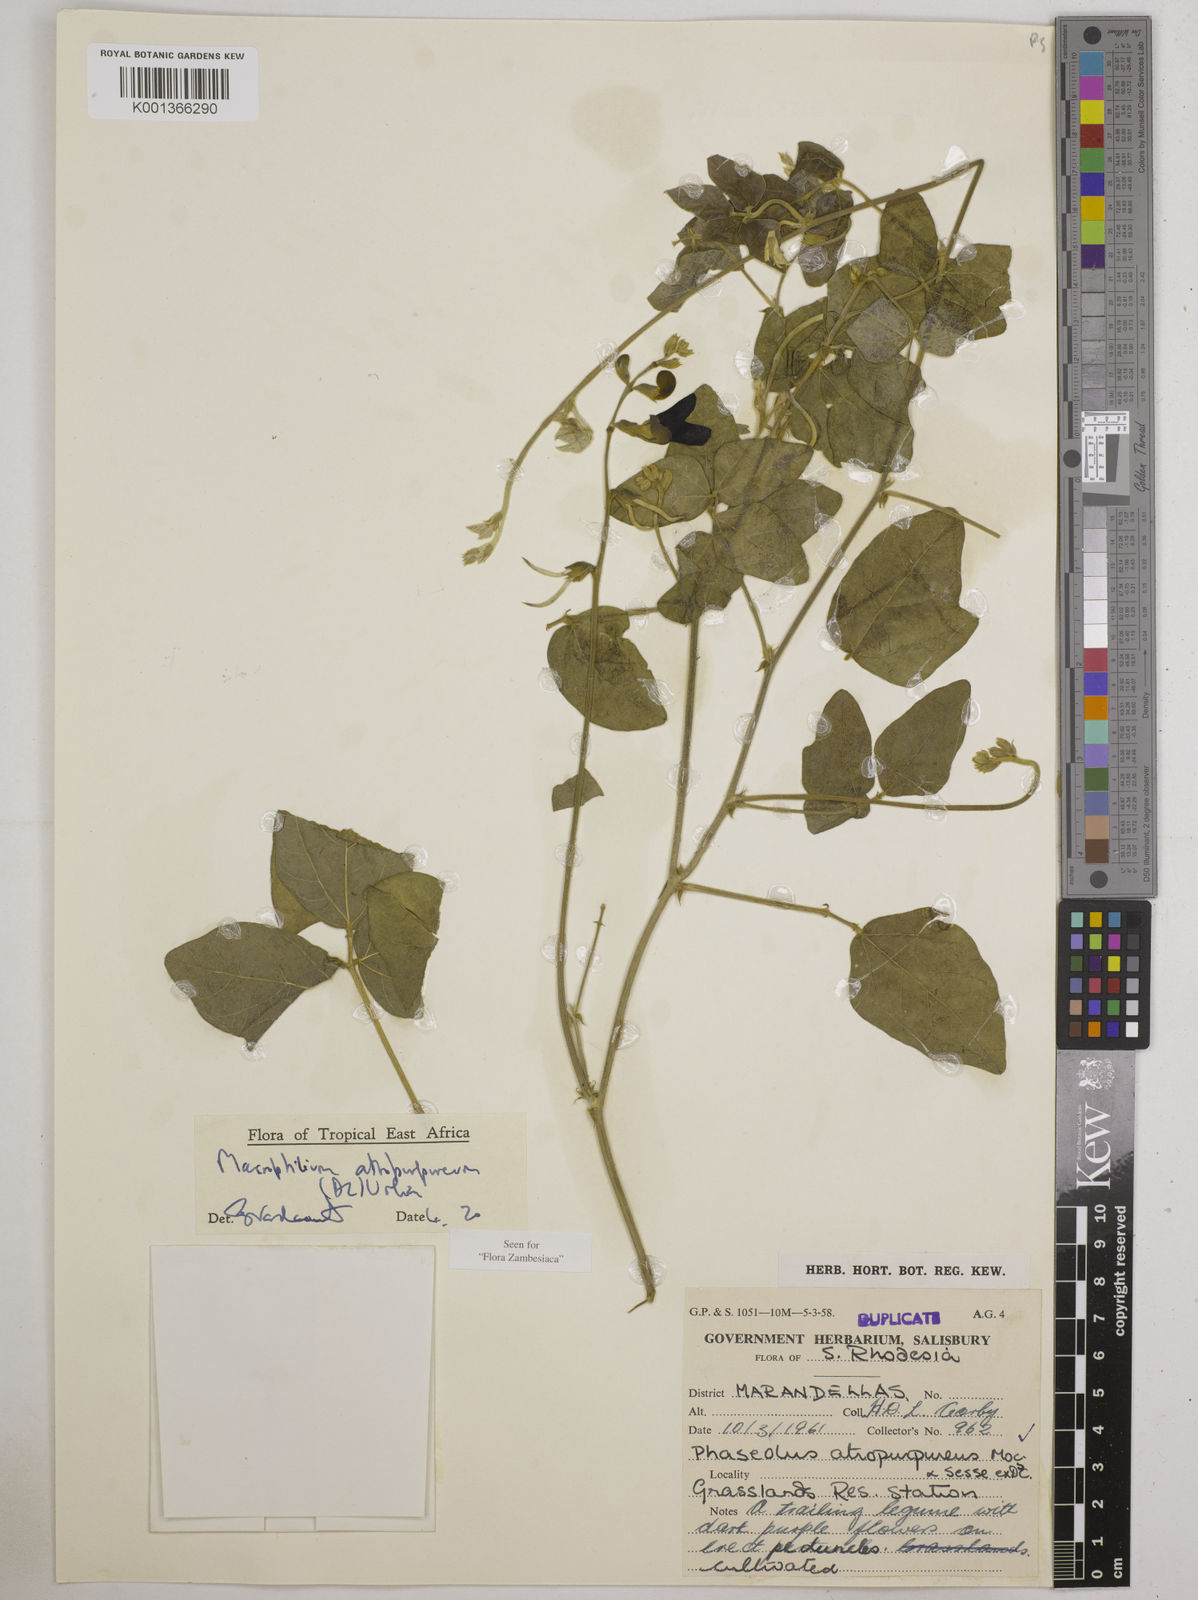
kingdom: Plantae
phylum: Tracheophyta
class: Magnoliopsida
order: Fabales
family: Fabaceae
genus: Macroptilium
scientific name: Macroptilium atropurpureum
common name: Purple bushbean
